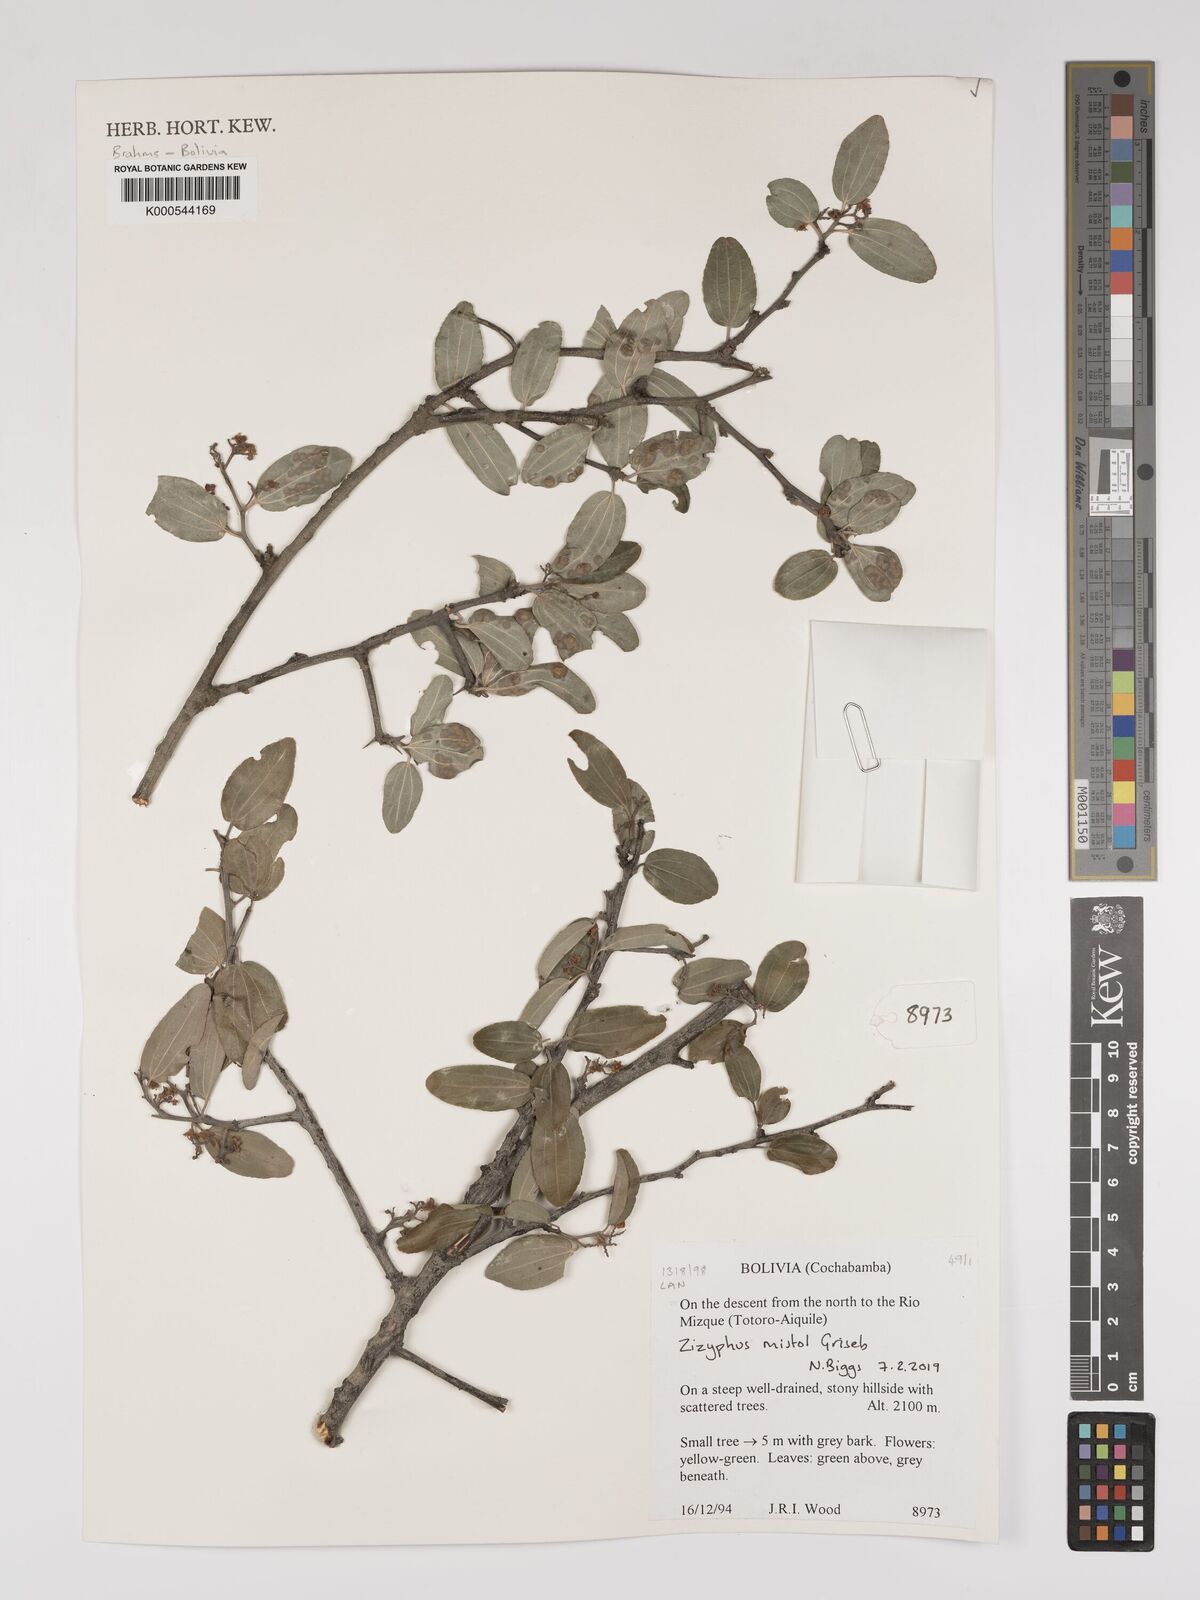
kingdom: Plantae
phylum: Tracheophyta
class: Magnoliopsida
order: Rosales
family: Rhamnaceae
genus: Sarcomphalus
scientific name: Sarcomphalus mistol
